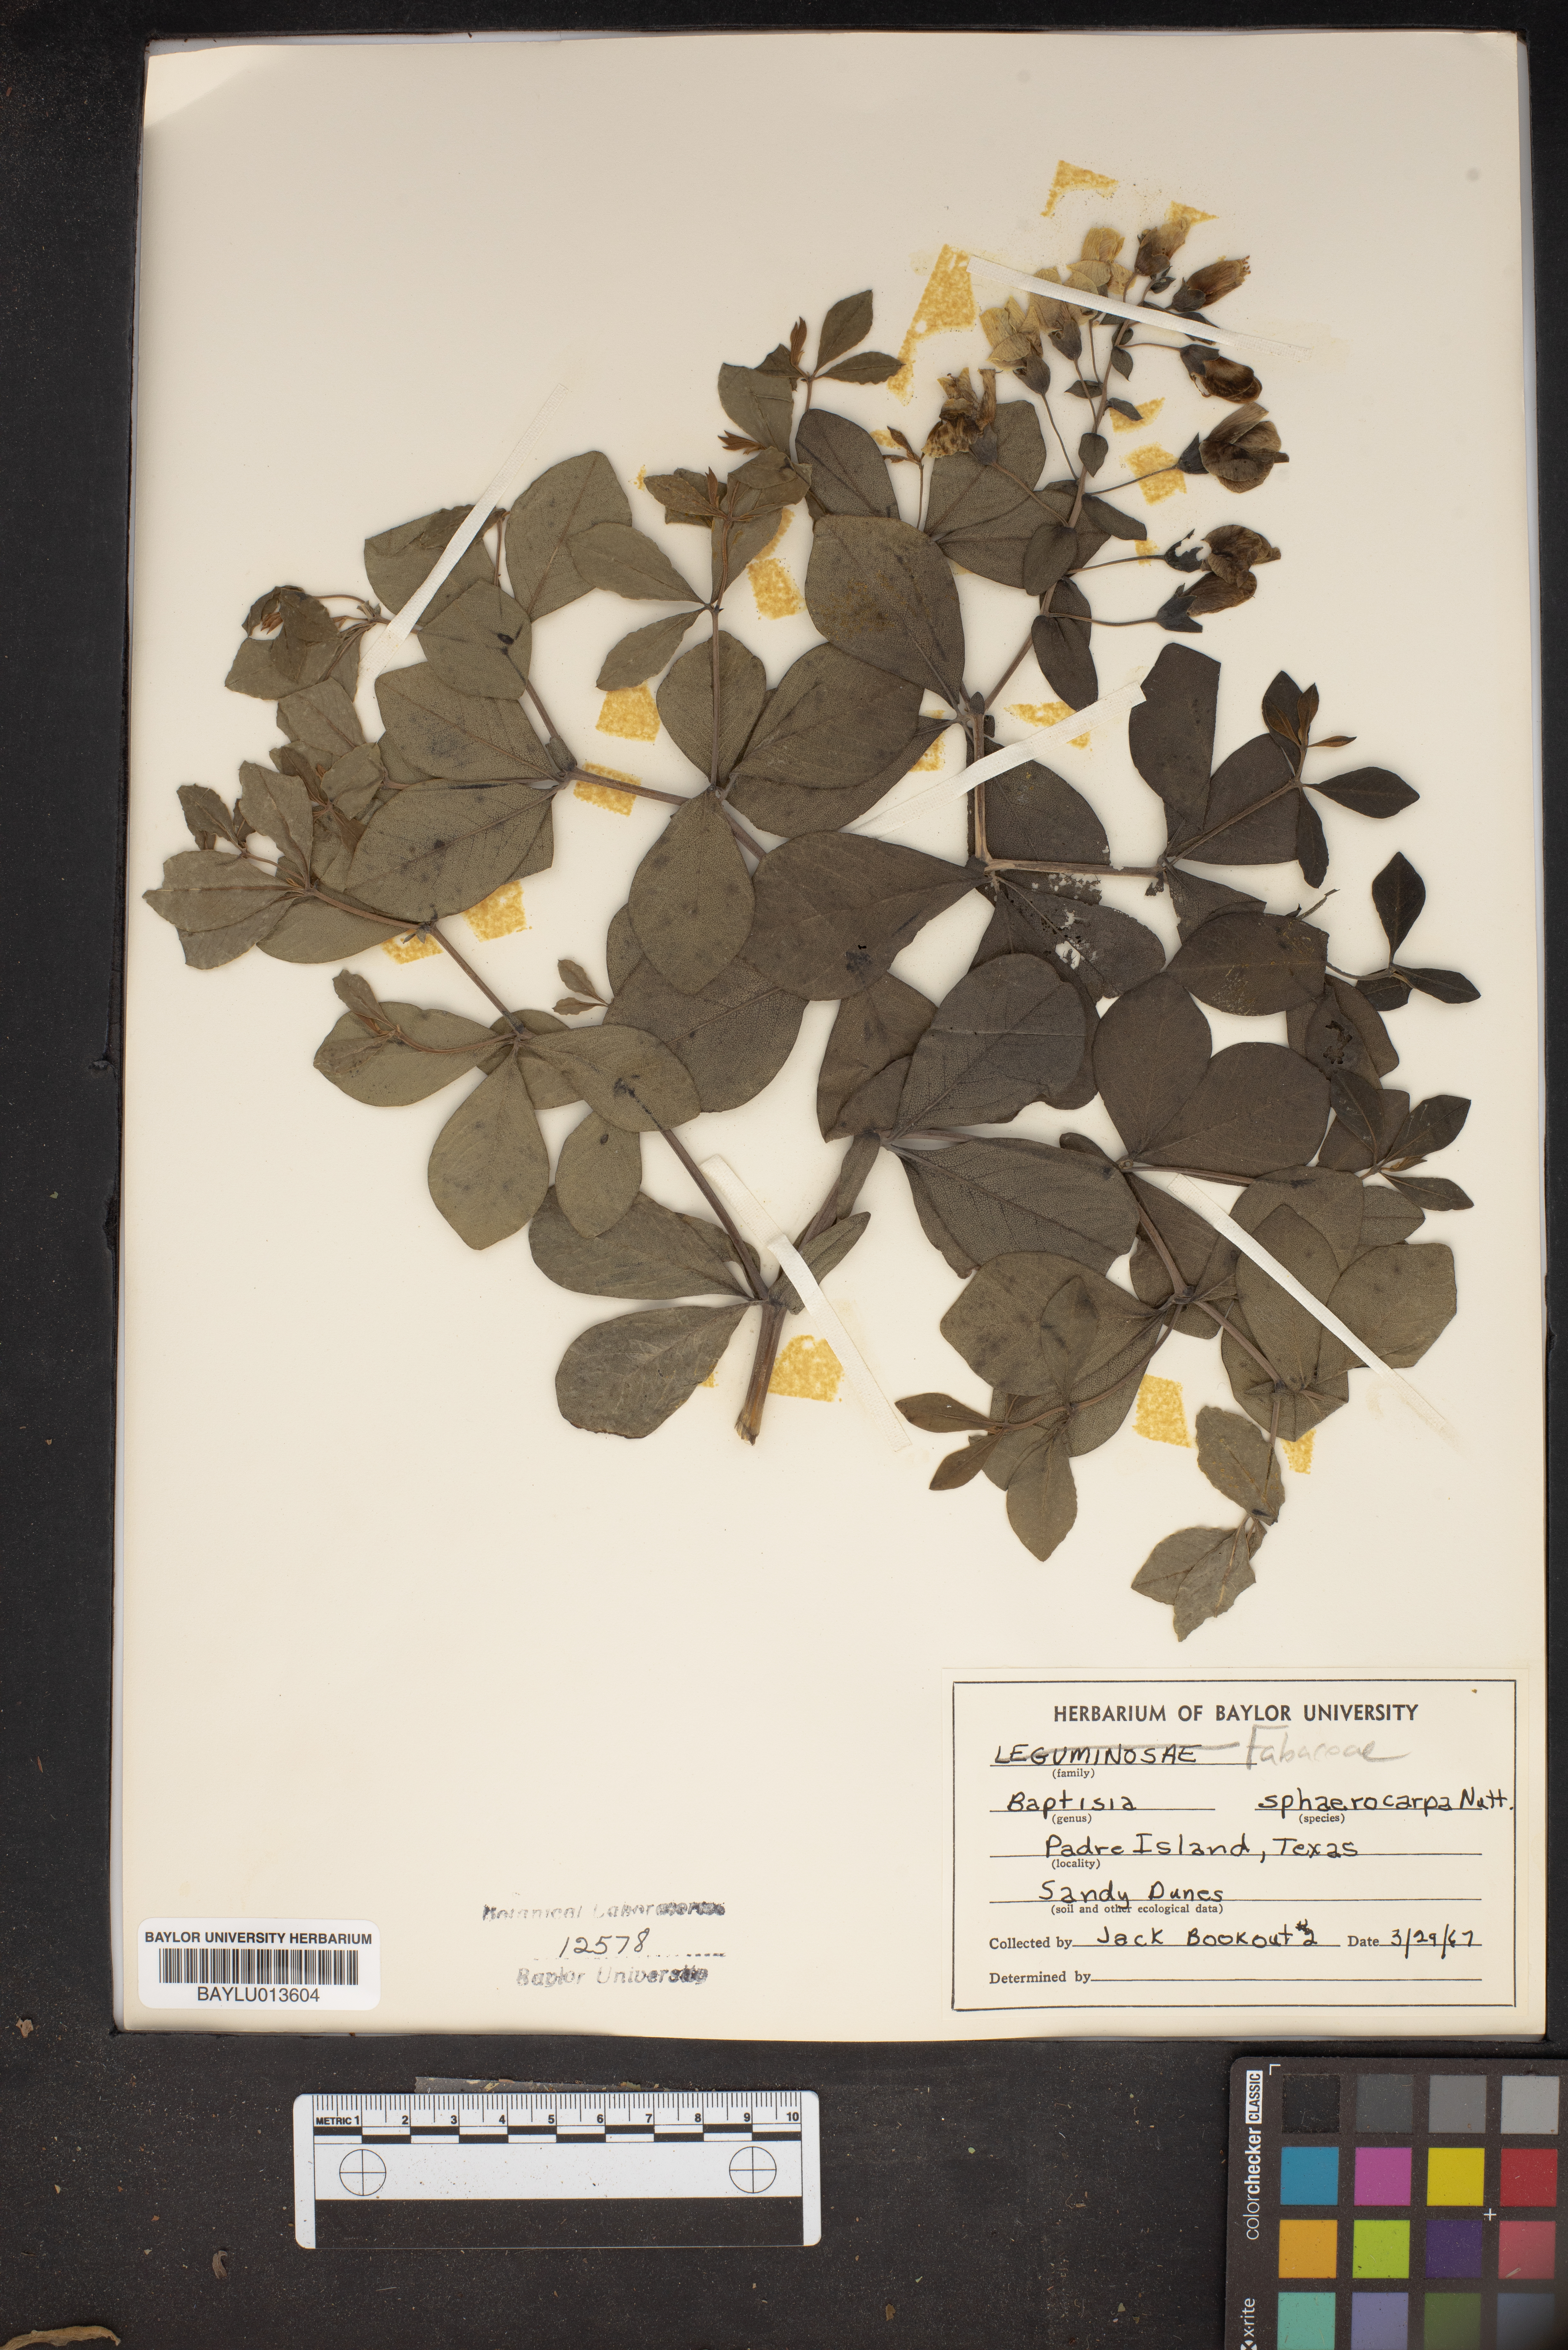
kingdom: Plantae
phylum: Tracheophyta
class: Magnoliopsida
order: Fabales
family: Fabaceae
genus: Baptisia
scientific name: Baptisia sphaerocarpa
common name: Round wild indigo
